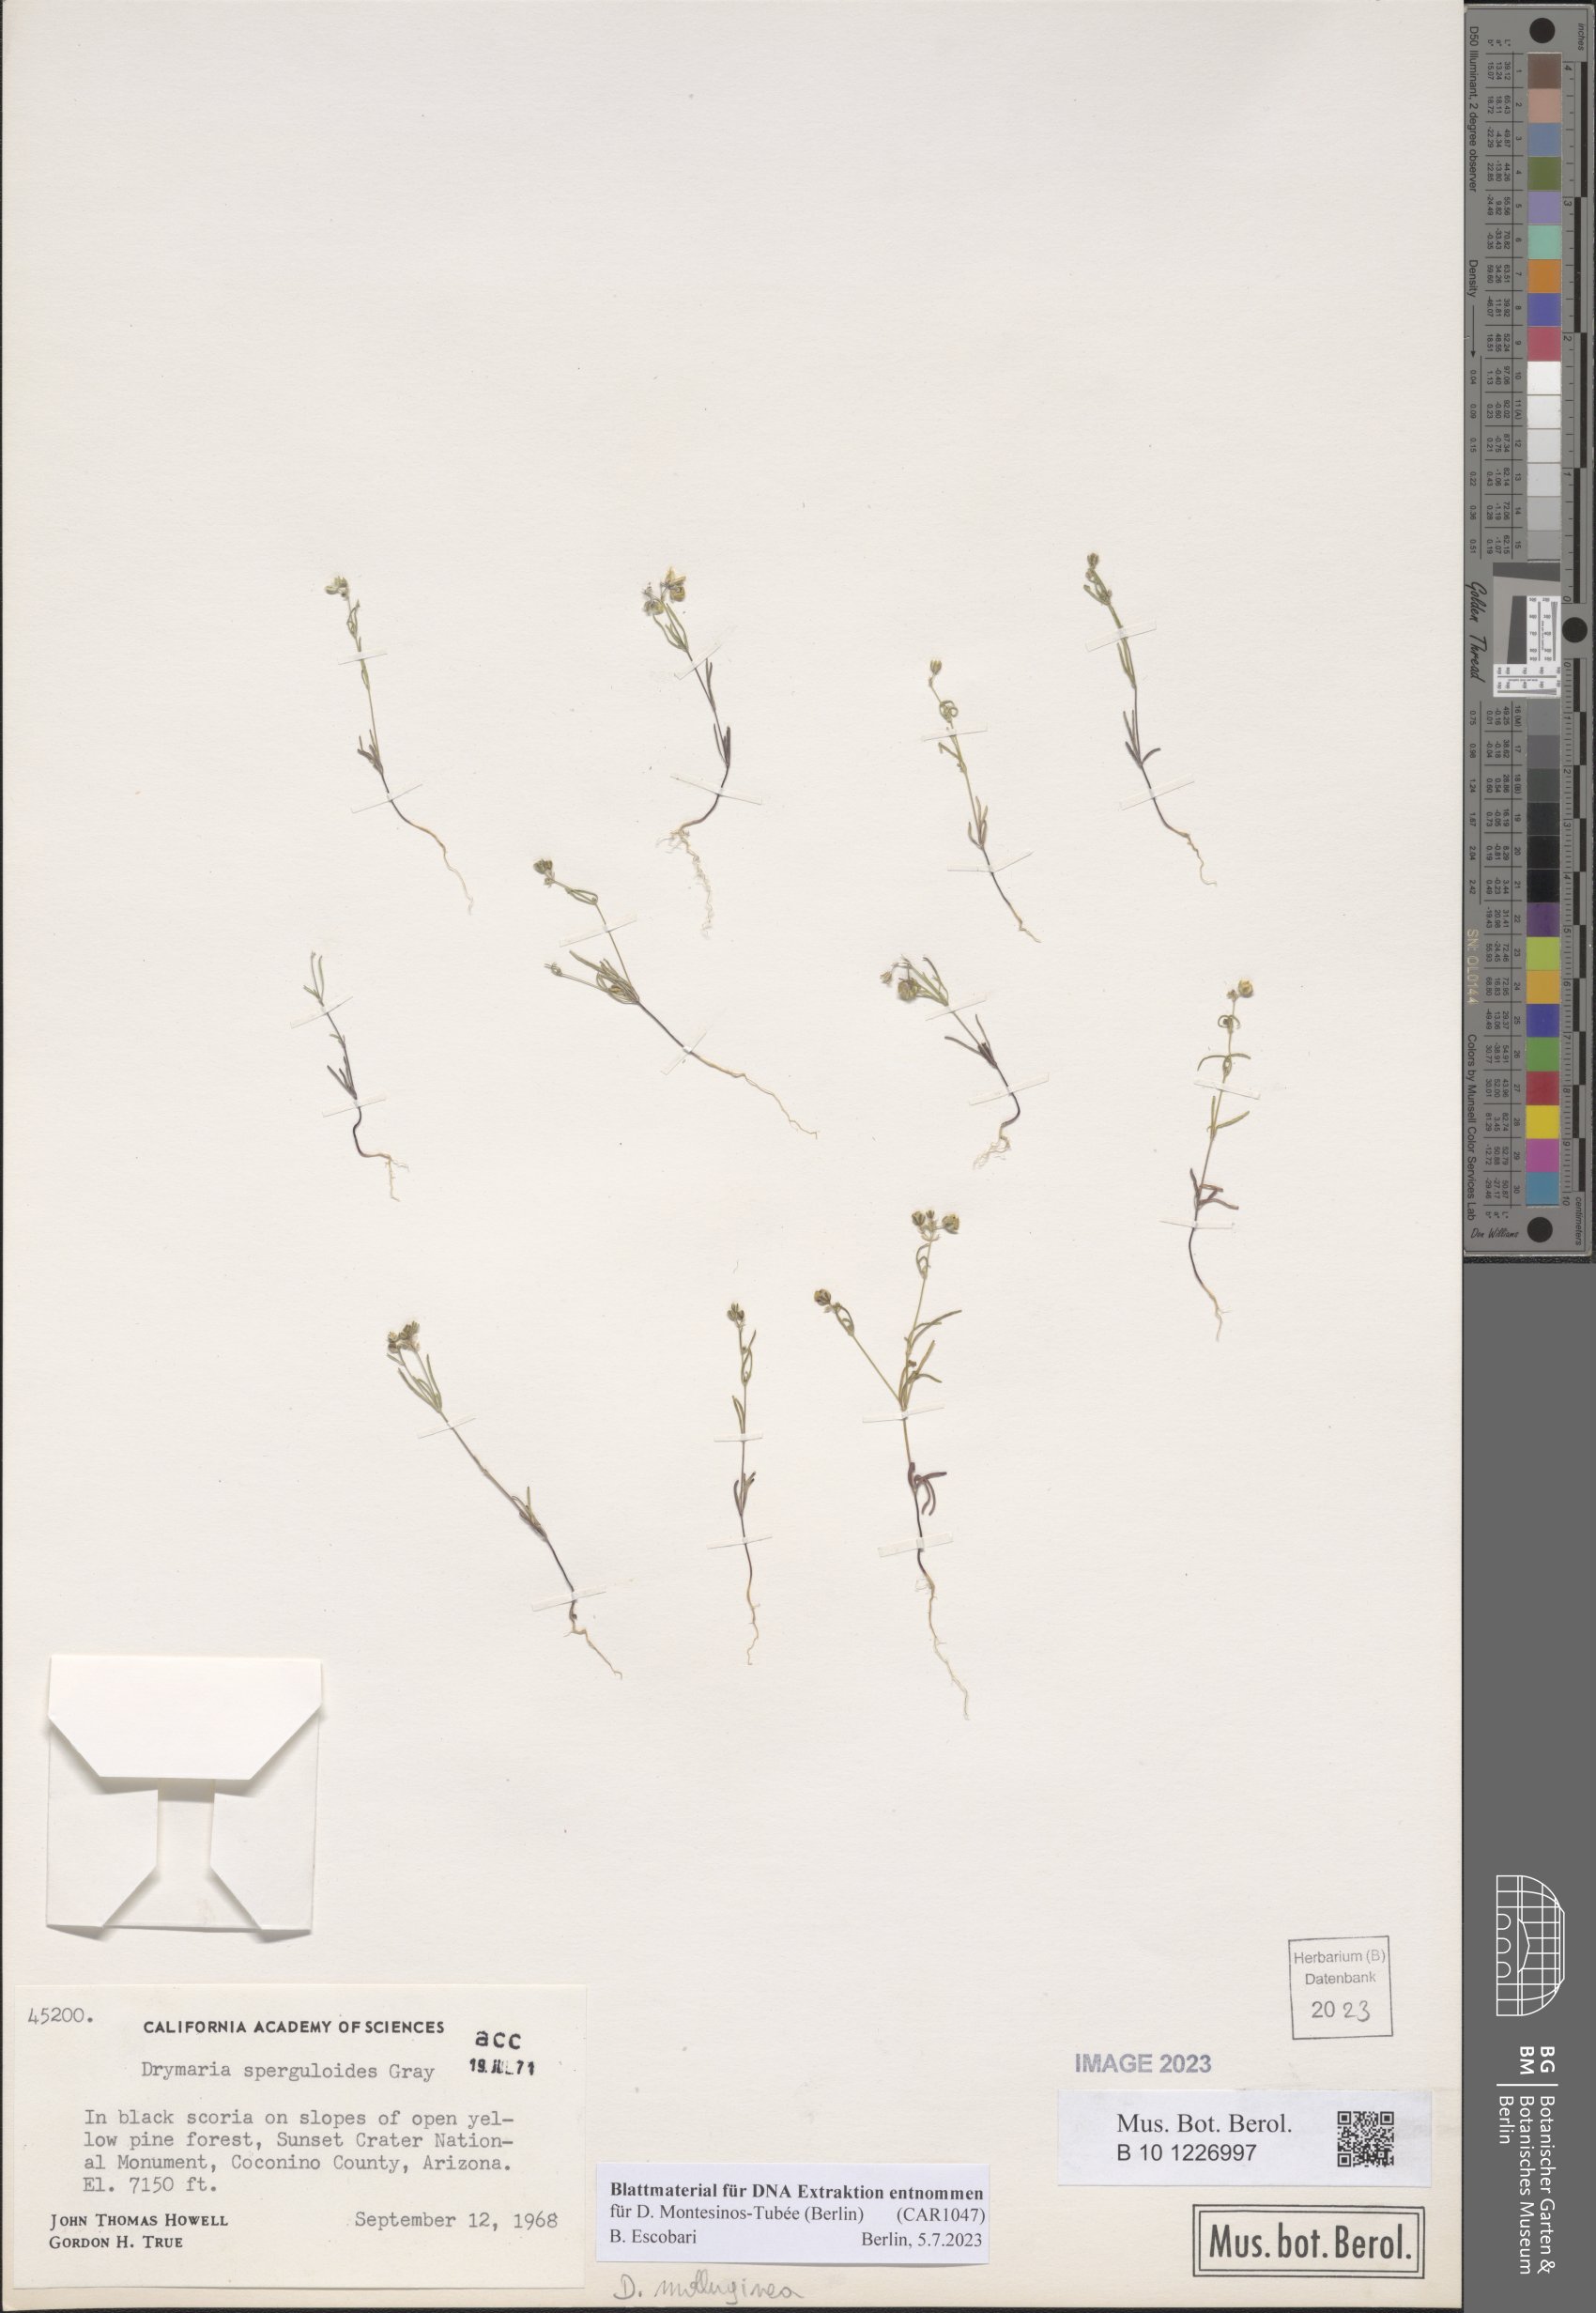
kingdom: Plantae
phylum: Tracheophyta
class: Magnoliopsida
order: Caryophyllales
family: Caryophyllaceae
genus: Drymaria
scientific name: Drymaria molluginea
